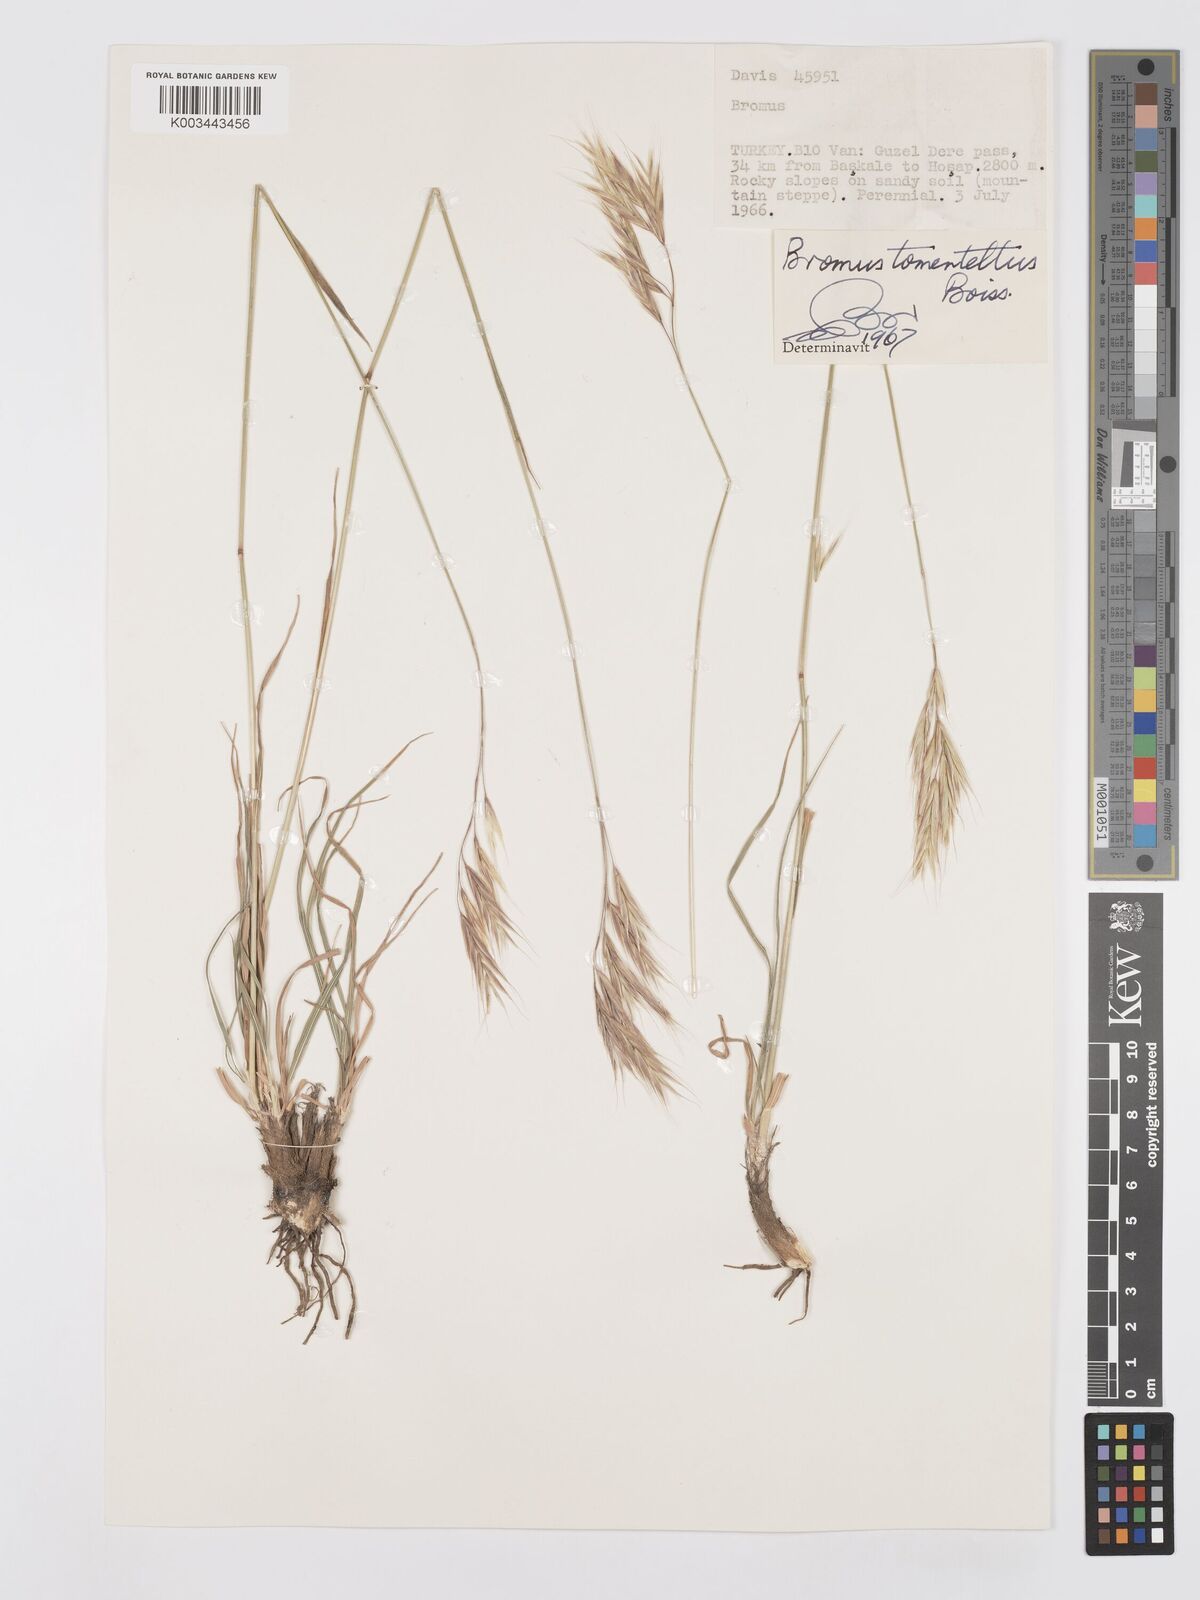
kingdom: Plantae
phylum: Tracheophyta
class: Liliopsida
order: Poales
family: Poaceae
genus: Bromus
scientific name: Bromus tomentellus
